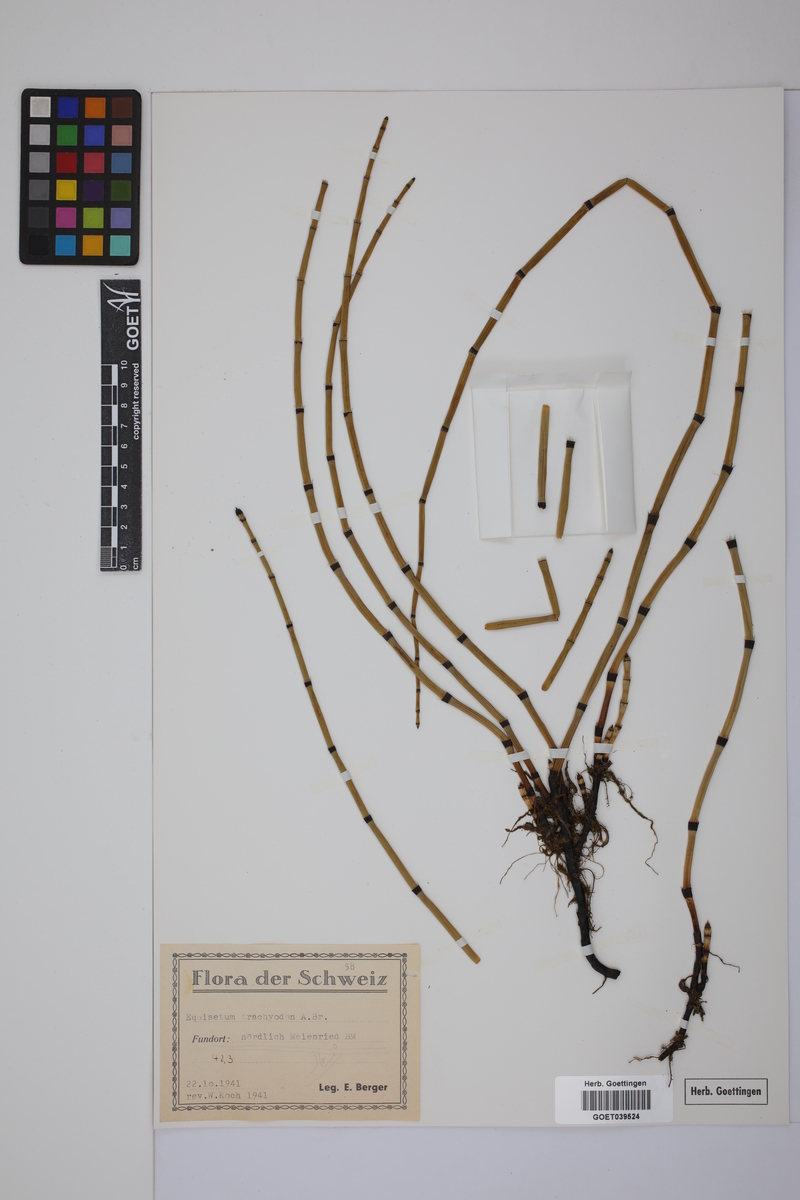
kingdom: Plantae
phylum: Tracheophyta
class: Polypodiopsida
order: Equisetales
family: Equisetaceae
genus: Equisetum
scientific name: Equisetum trachyodon
